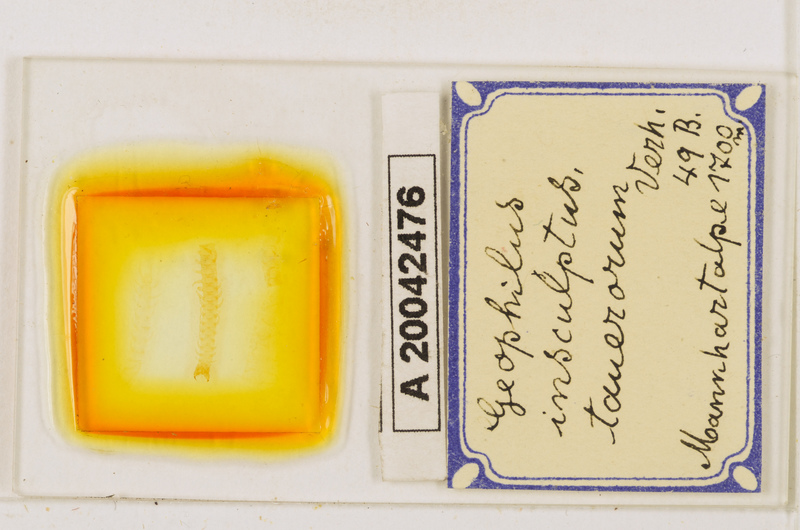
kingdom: Animalia
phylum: Arthropoda
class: Chilopoda
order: Geophilomorpha
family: Geophilidae
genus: Geophilus
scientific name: Geophilus insculptus
